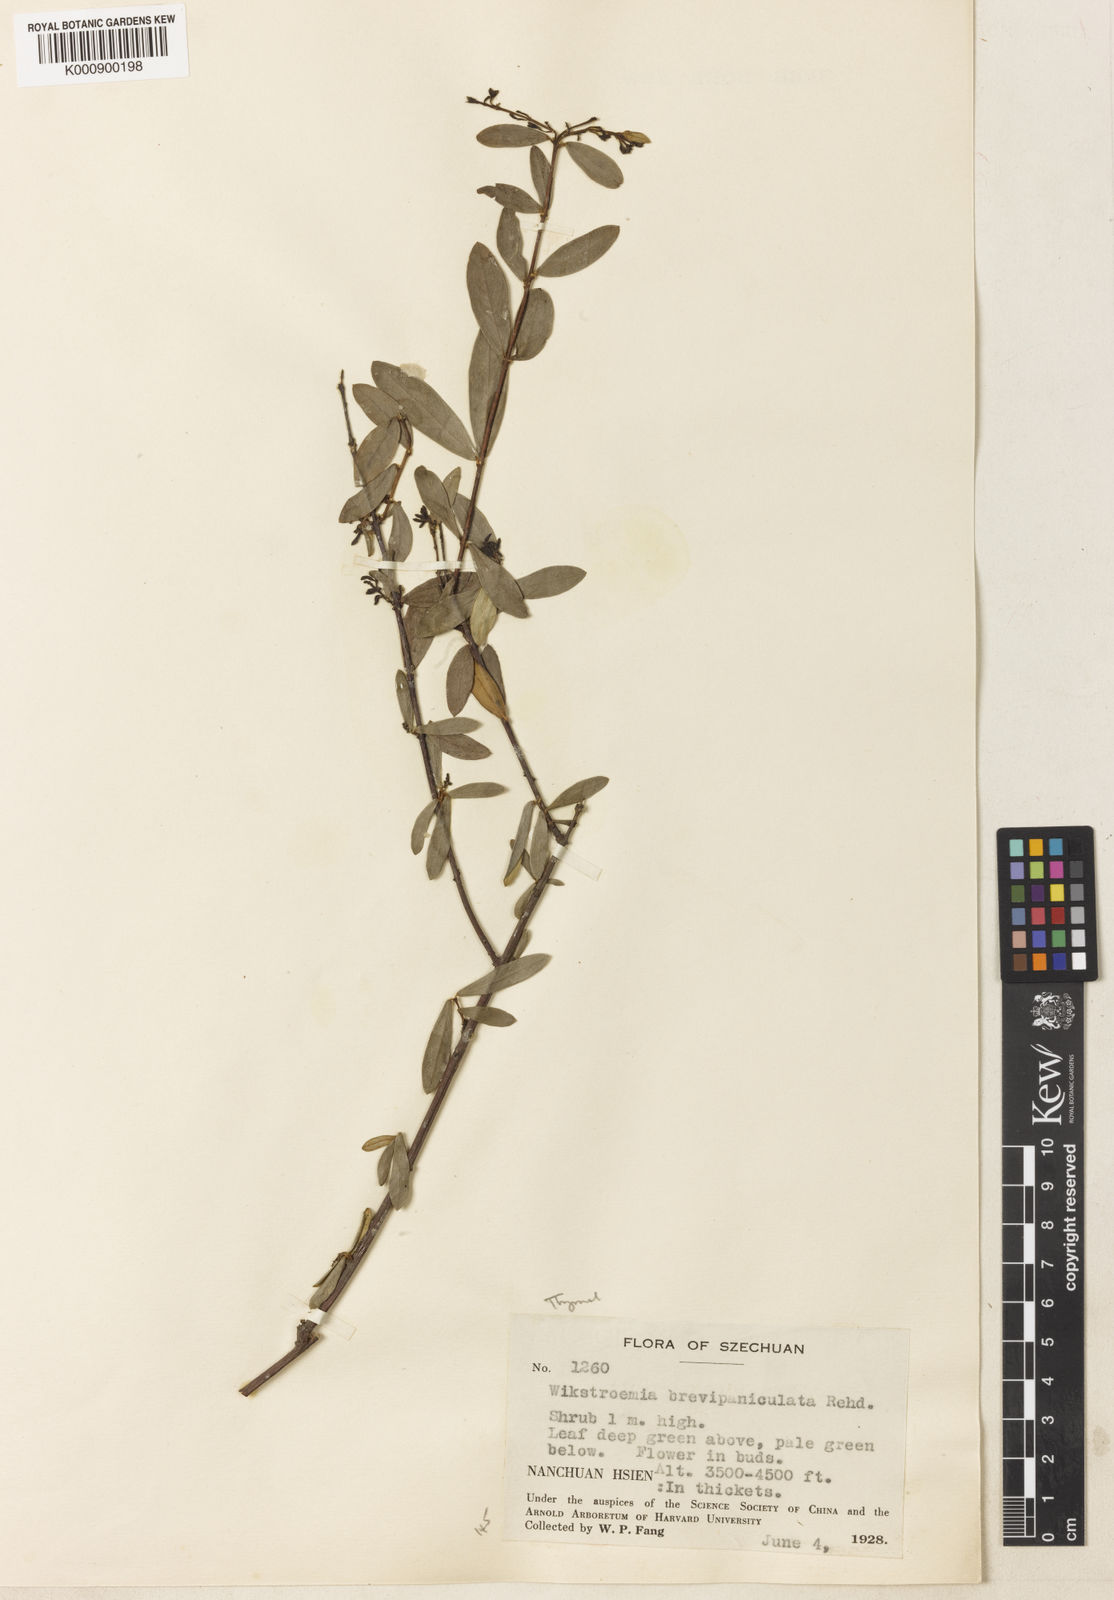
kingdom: Plantae
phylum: Tracheophyta
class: Magnoliopsida
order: Malvales
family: Thymelaeaceae
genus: Wikstroemia
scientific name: Wikstroemia micrantha
